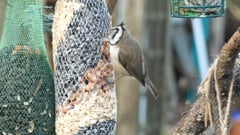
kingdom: Animalia
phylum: Chordata
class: Aves
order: Passeriformes
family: Paridae
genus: Lophophanes
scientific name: Lophophanes cristatus
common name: European crested tit
